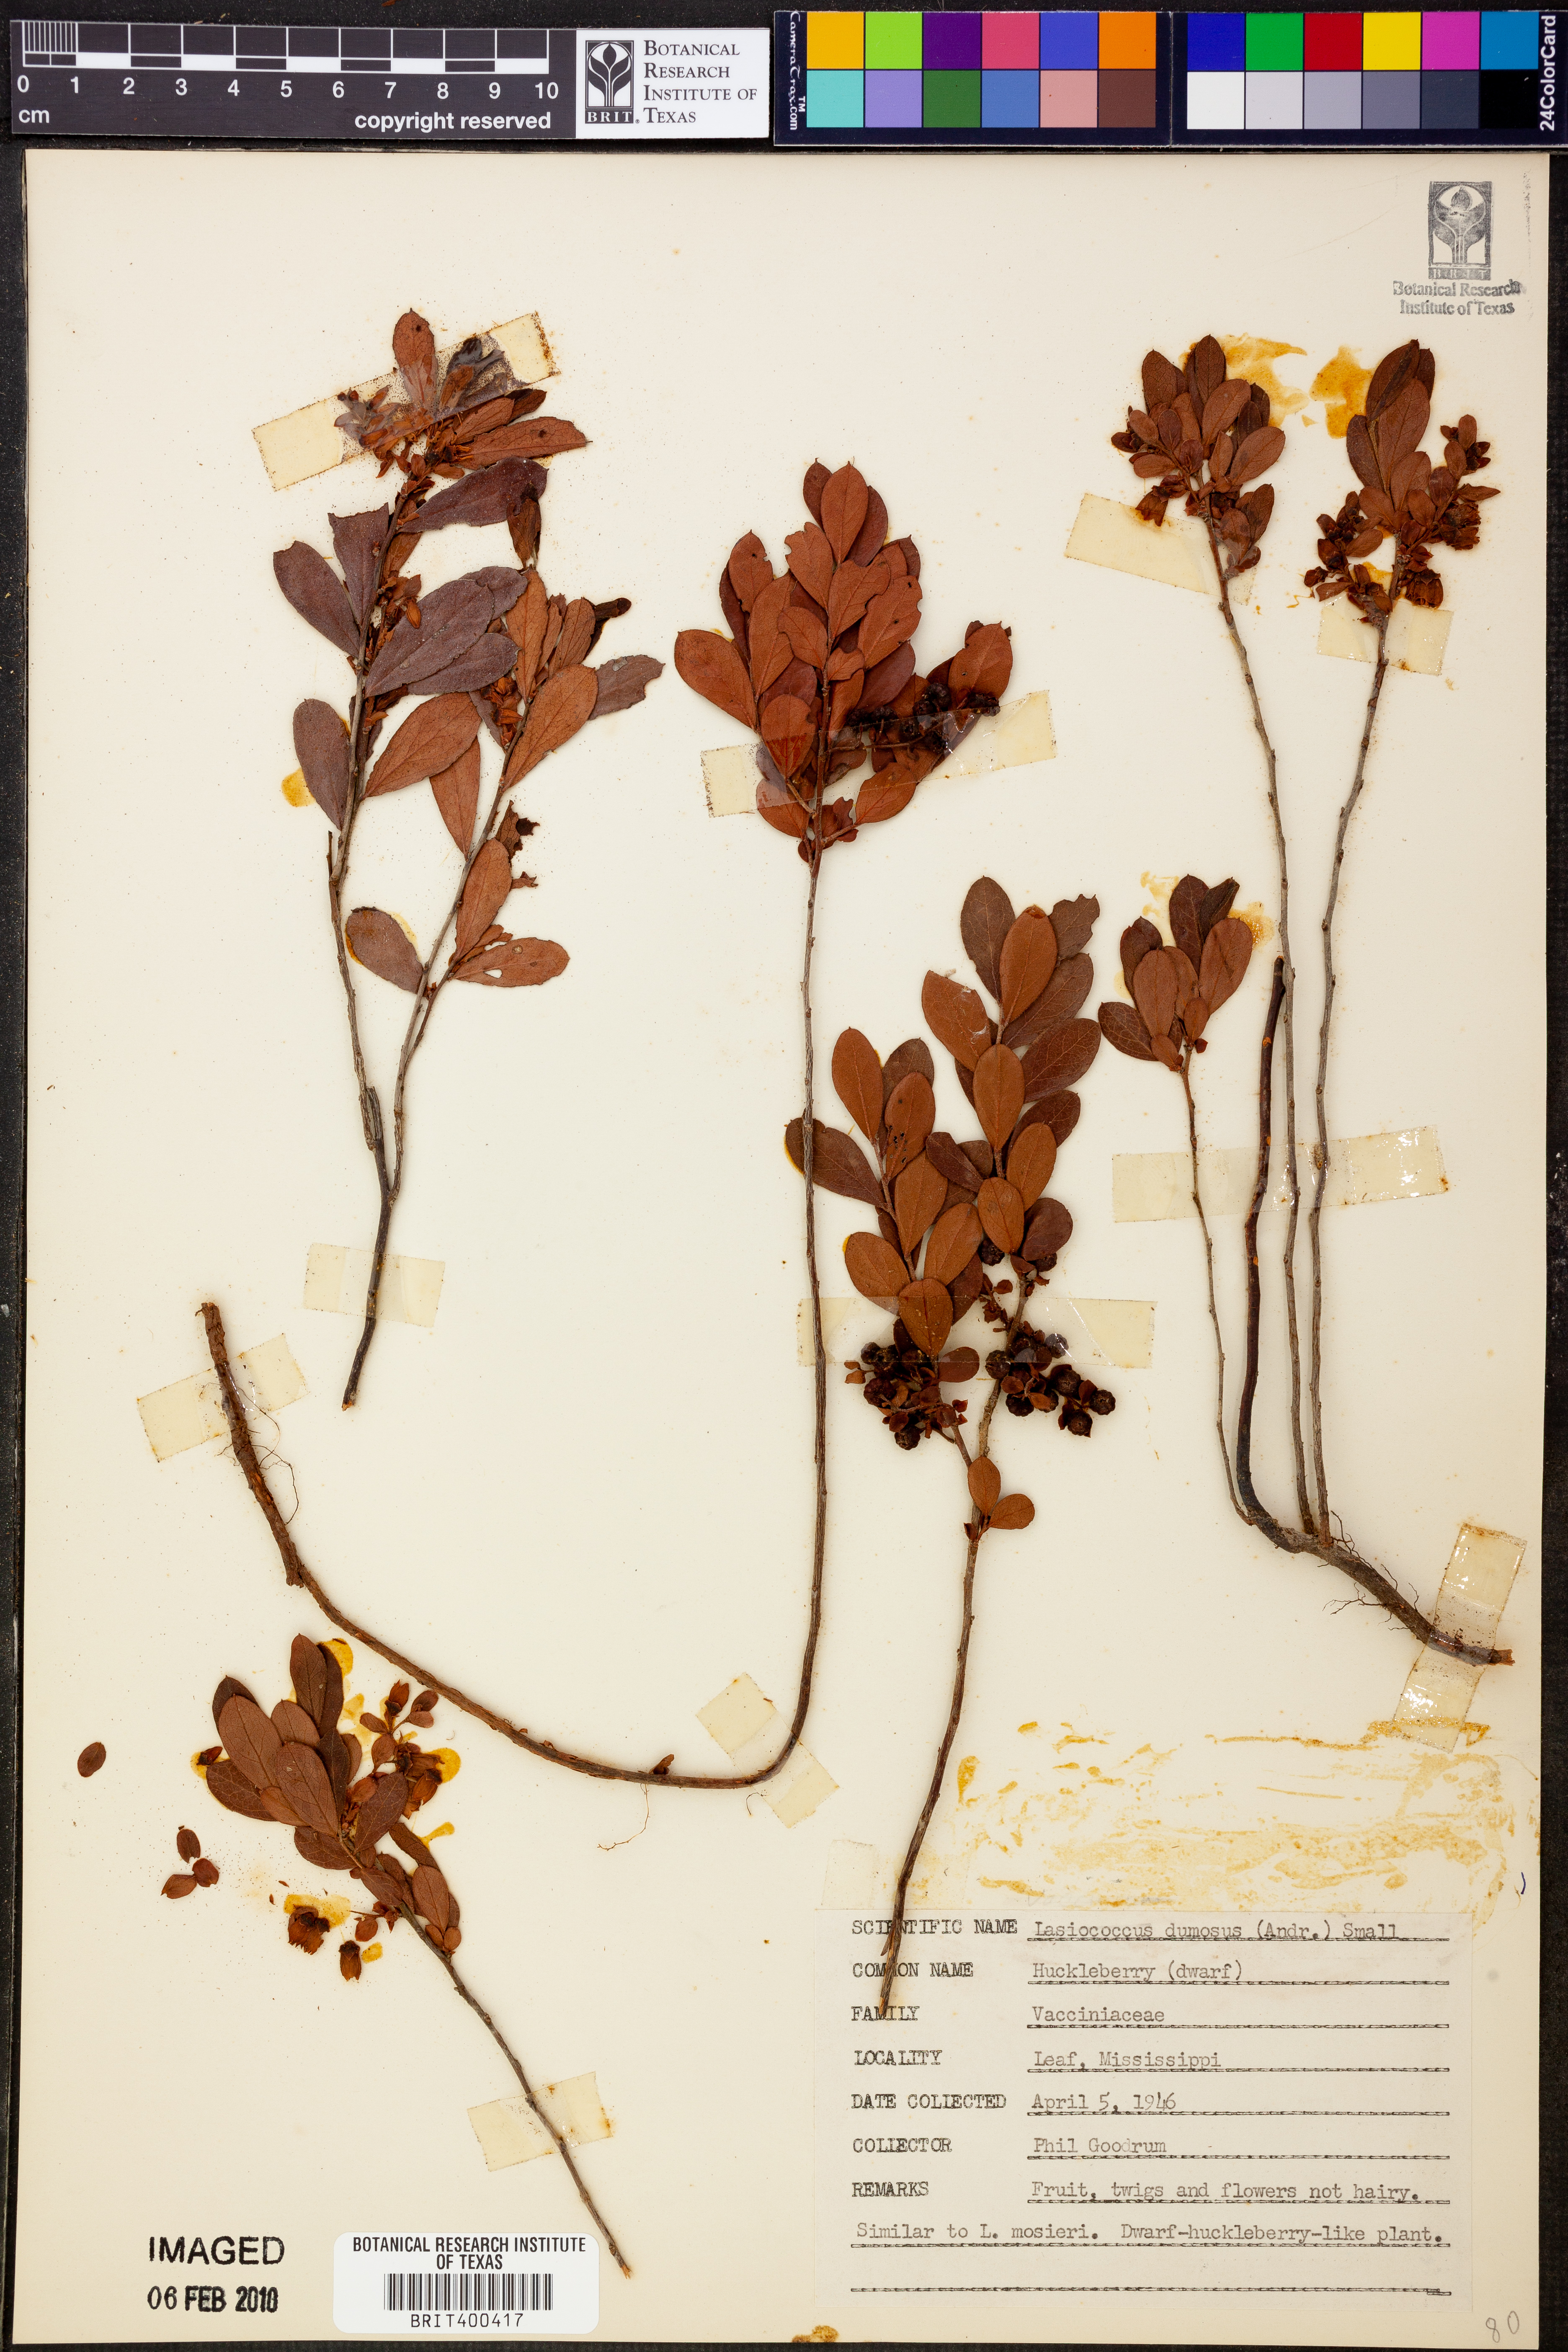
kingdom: Plantae
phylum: Tracheophyta
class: Magnoliopsida
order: Ericales
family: Ericaceae
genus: Gaylussacia
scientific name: Gaylussacia dumosa
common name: Dwarf huckleberry
